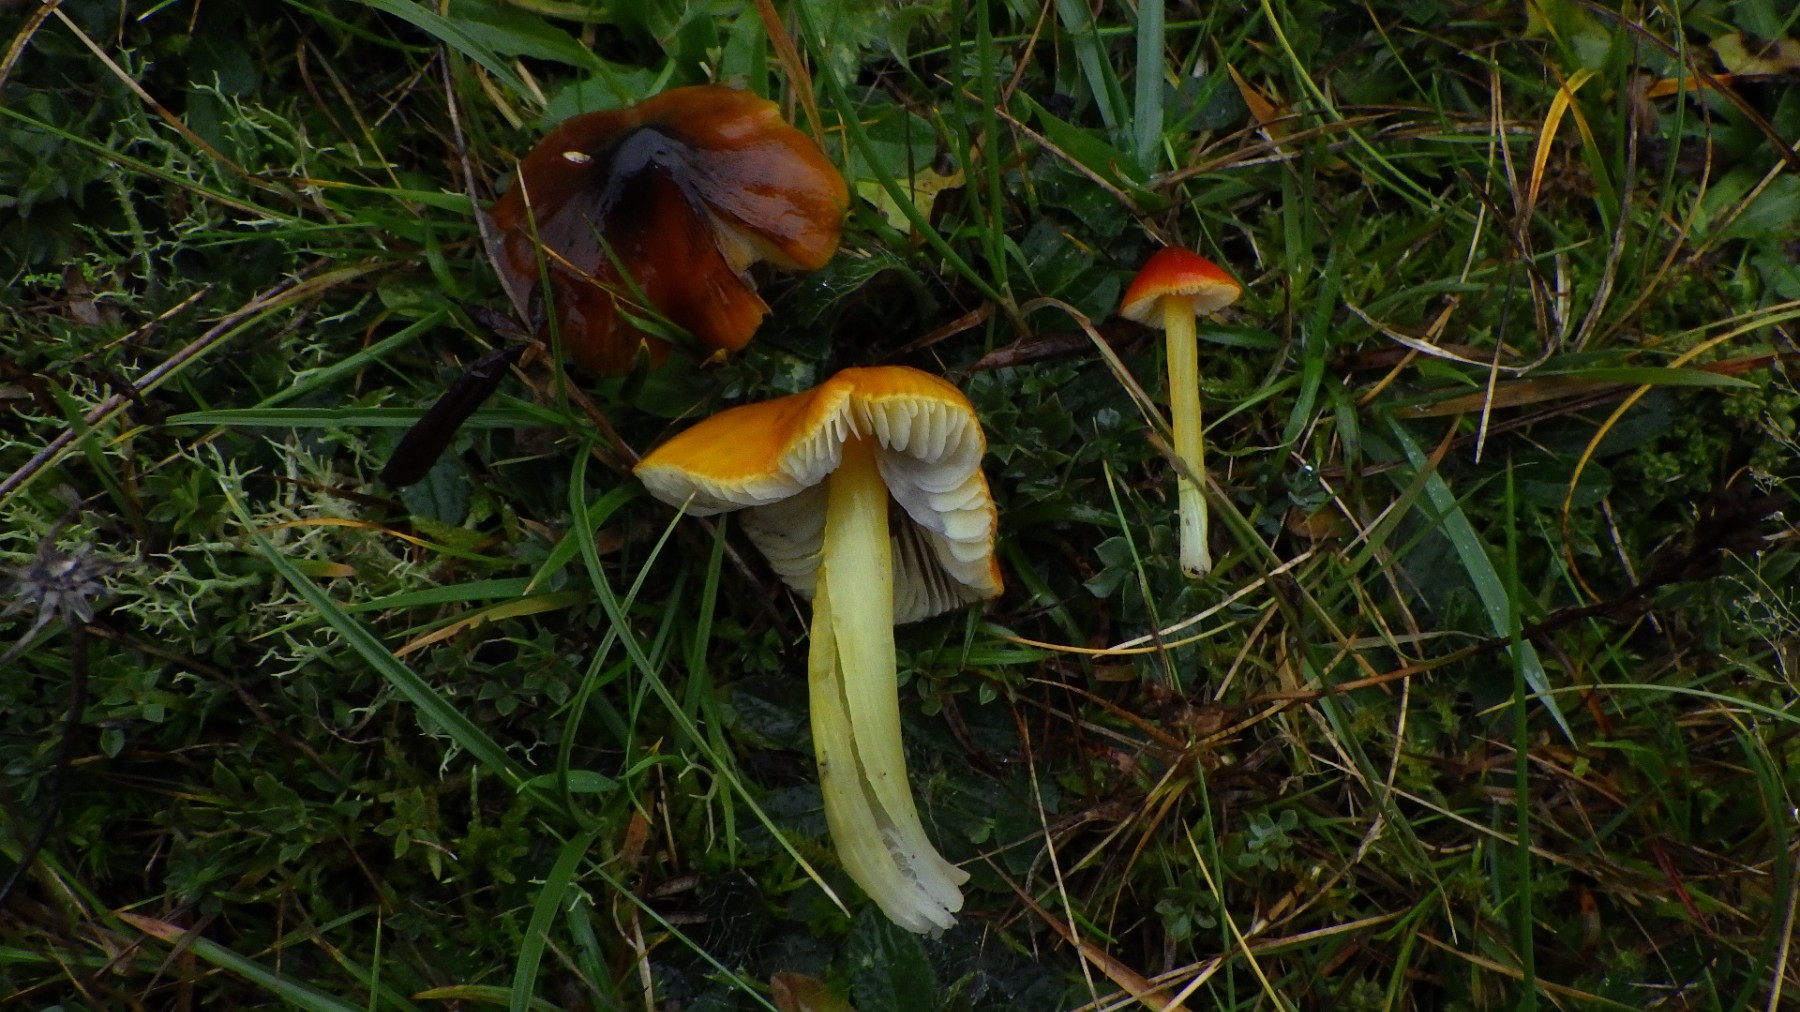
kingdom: Fungi
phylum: Basidiomycota
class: Agaricomycetes
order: Agaricales
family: Hygrophoraceae
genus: Hygrocybe
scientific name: Hygrocybe conica
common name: kegle-vokshat
